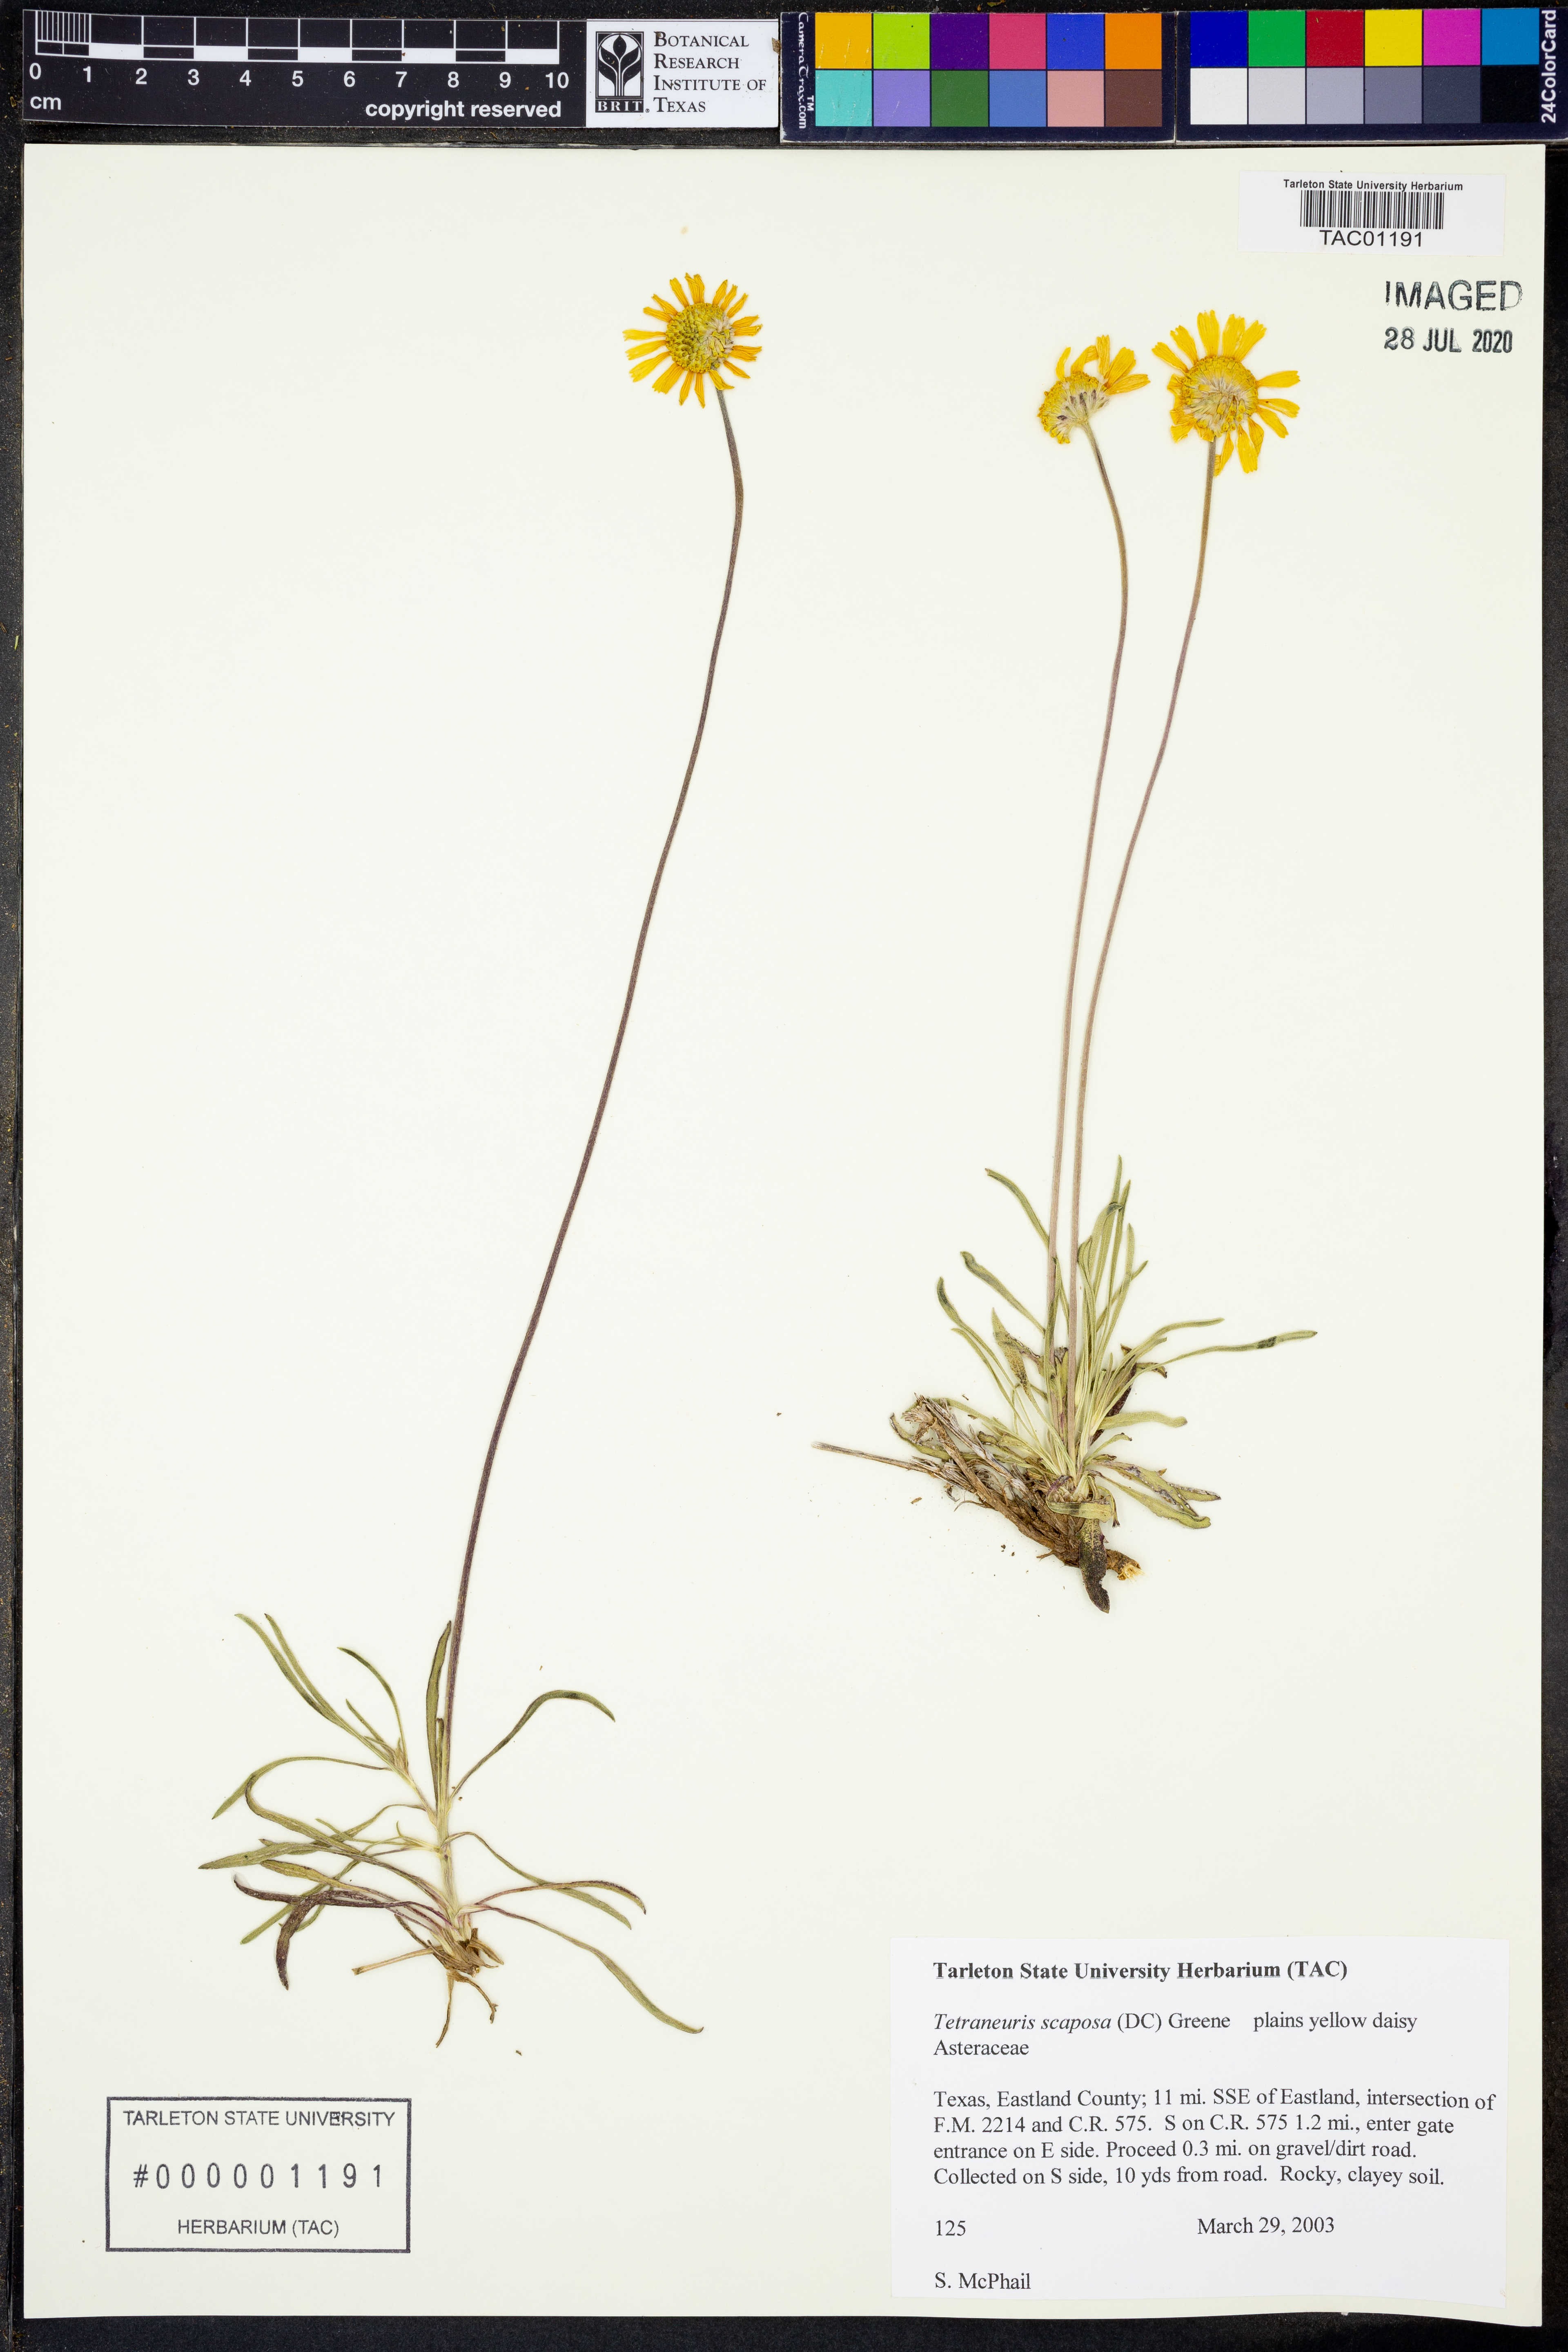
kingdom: Plantae
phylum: Tracheophyta
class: Magnoliopsida
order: Asterales
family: Asteraceae
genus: Tetraneuris
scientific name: Tetraneuris scaposa
